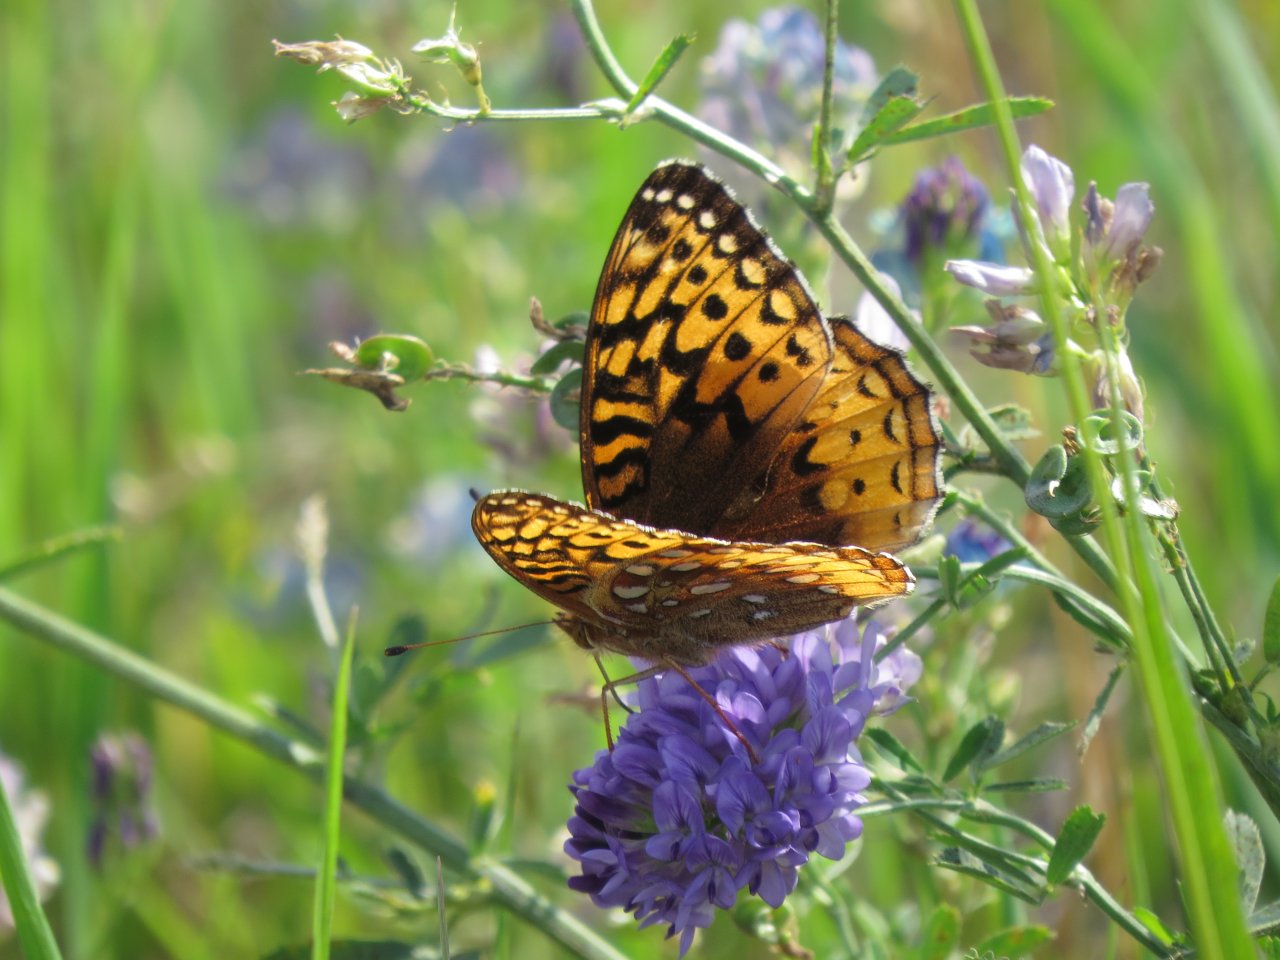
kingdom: Animalia
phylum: Arthropoda
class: Insecta
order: Lepidoptera
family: Nymphalidae
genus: Speyeria
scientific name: Speyeria cybele
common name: Great Spangled Fritillary
